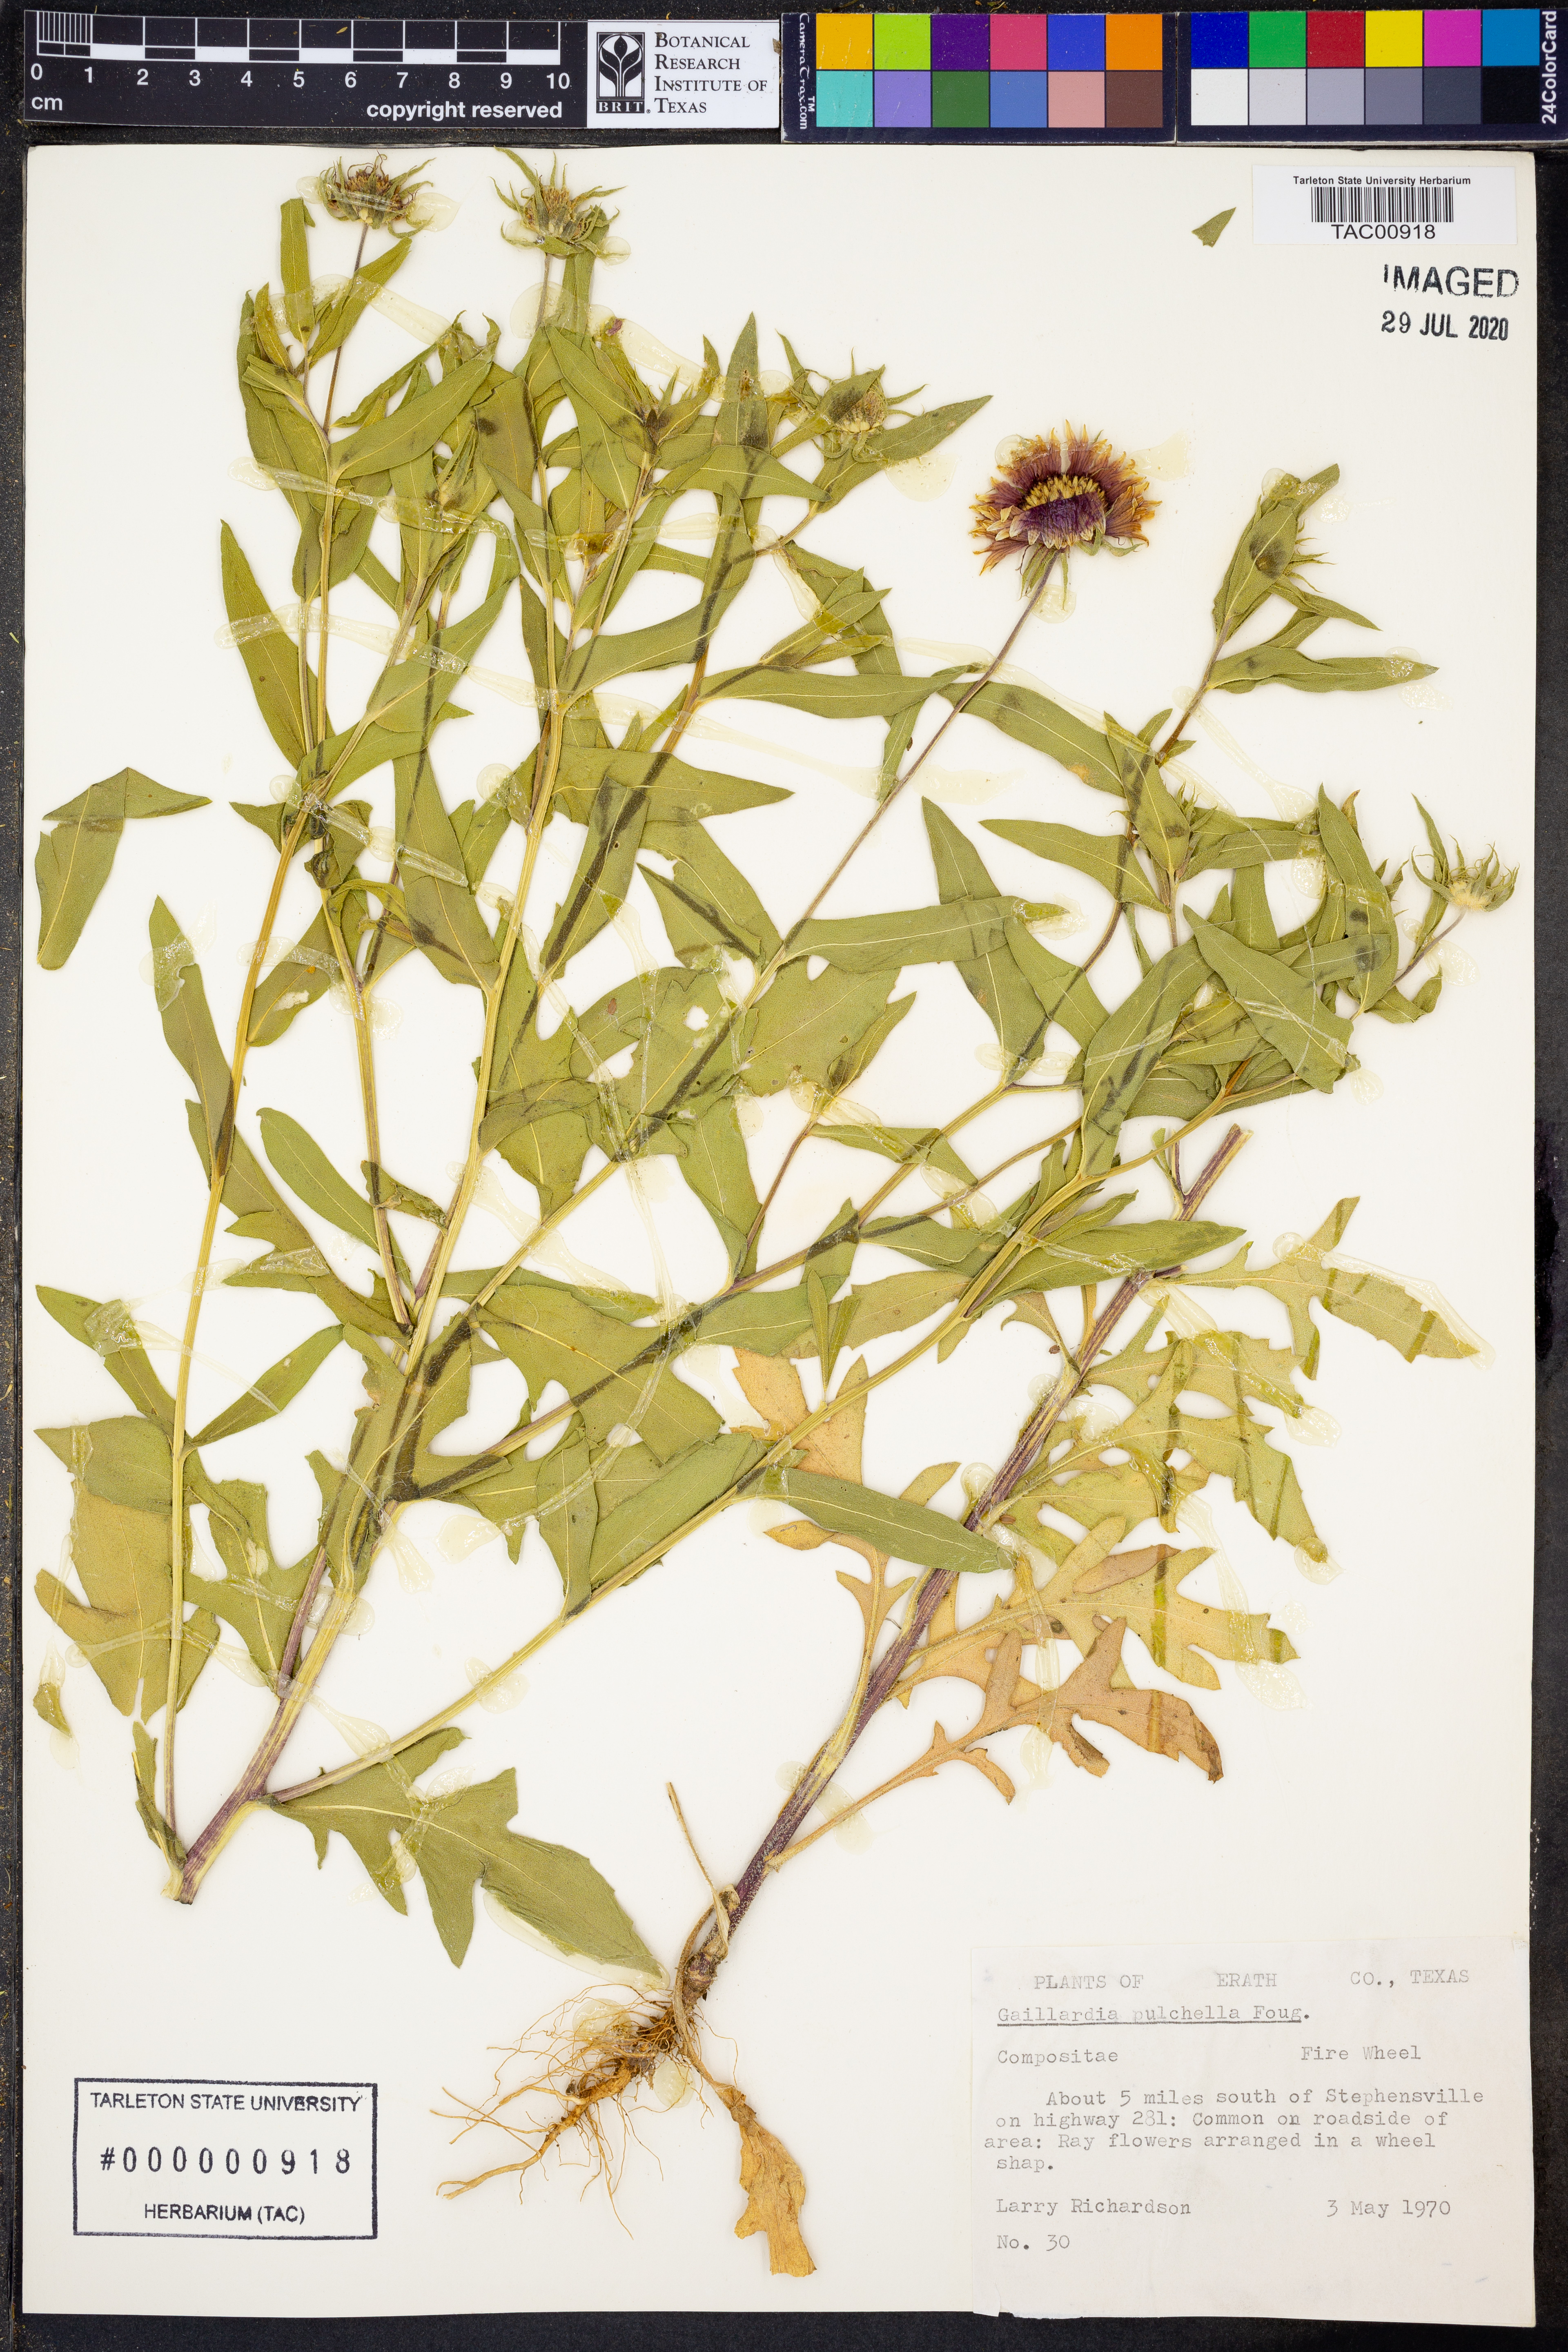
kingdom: Plantae
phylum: Tracheophyta
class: Magnoliopsida
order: Asterales
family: Asteraceae
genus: Gaillardia
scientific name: Gaillardia pulchella
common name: Firewheel
